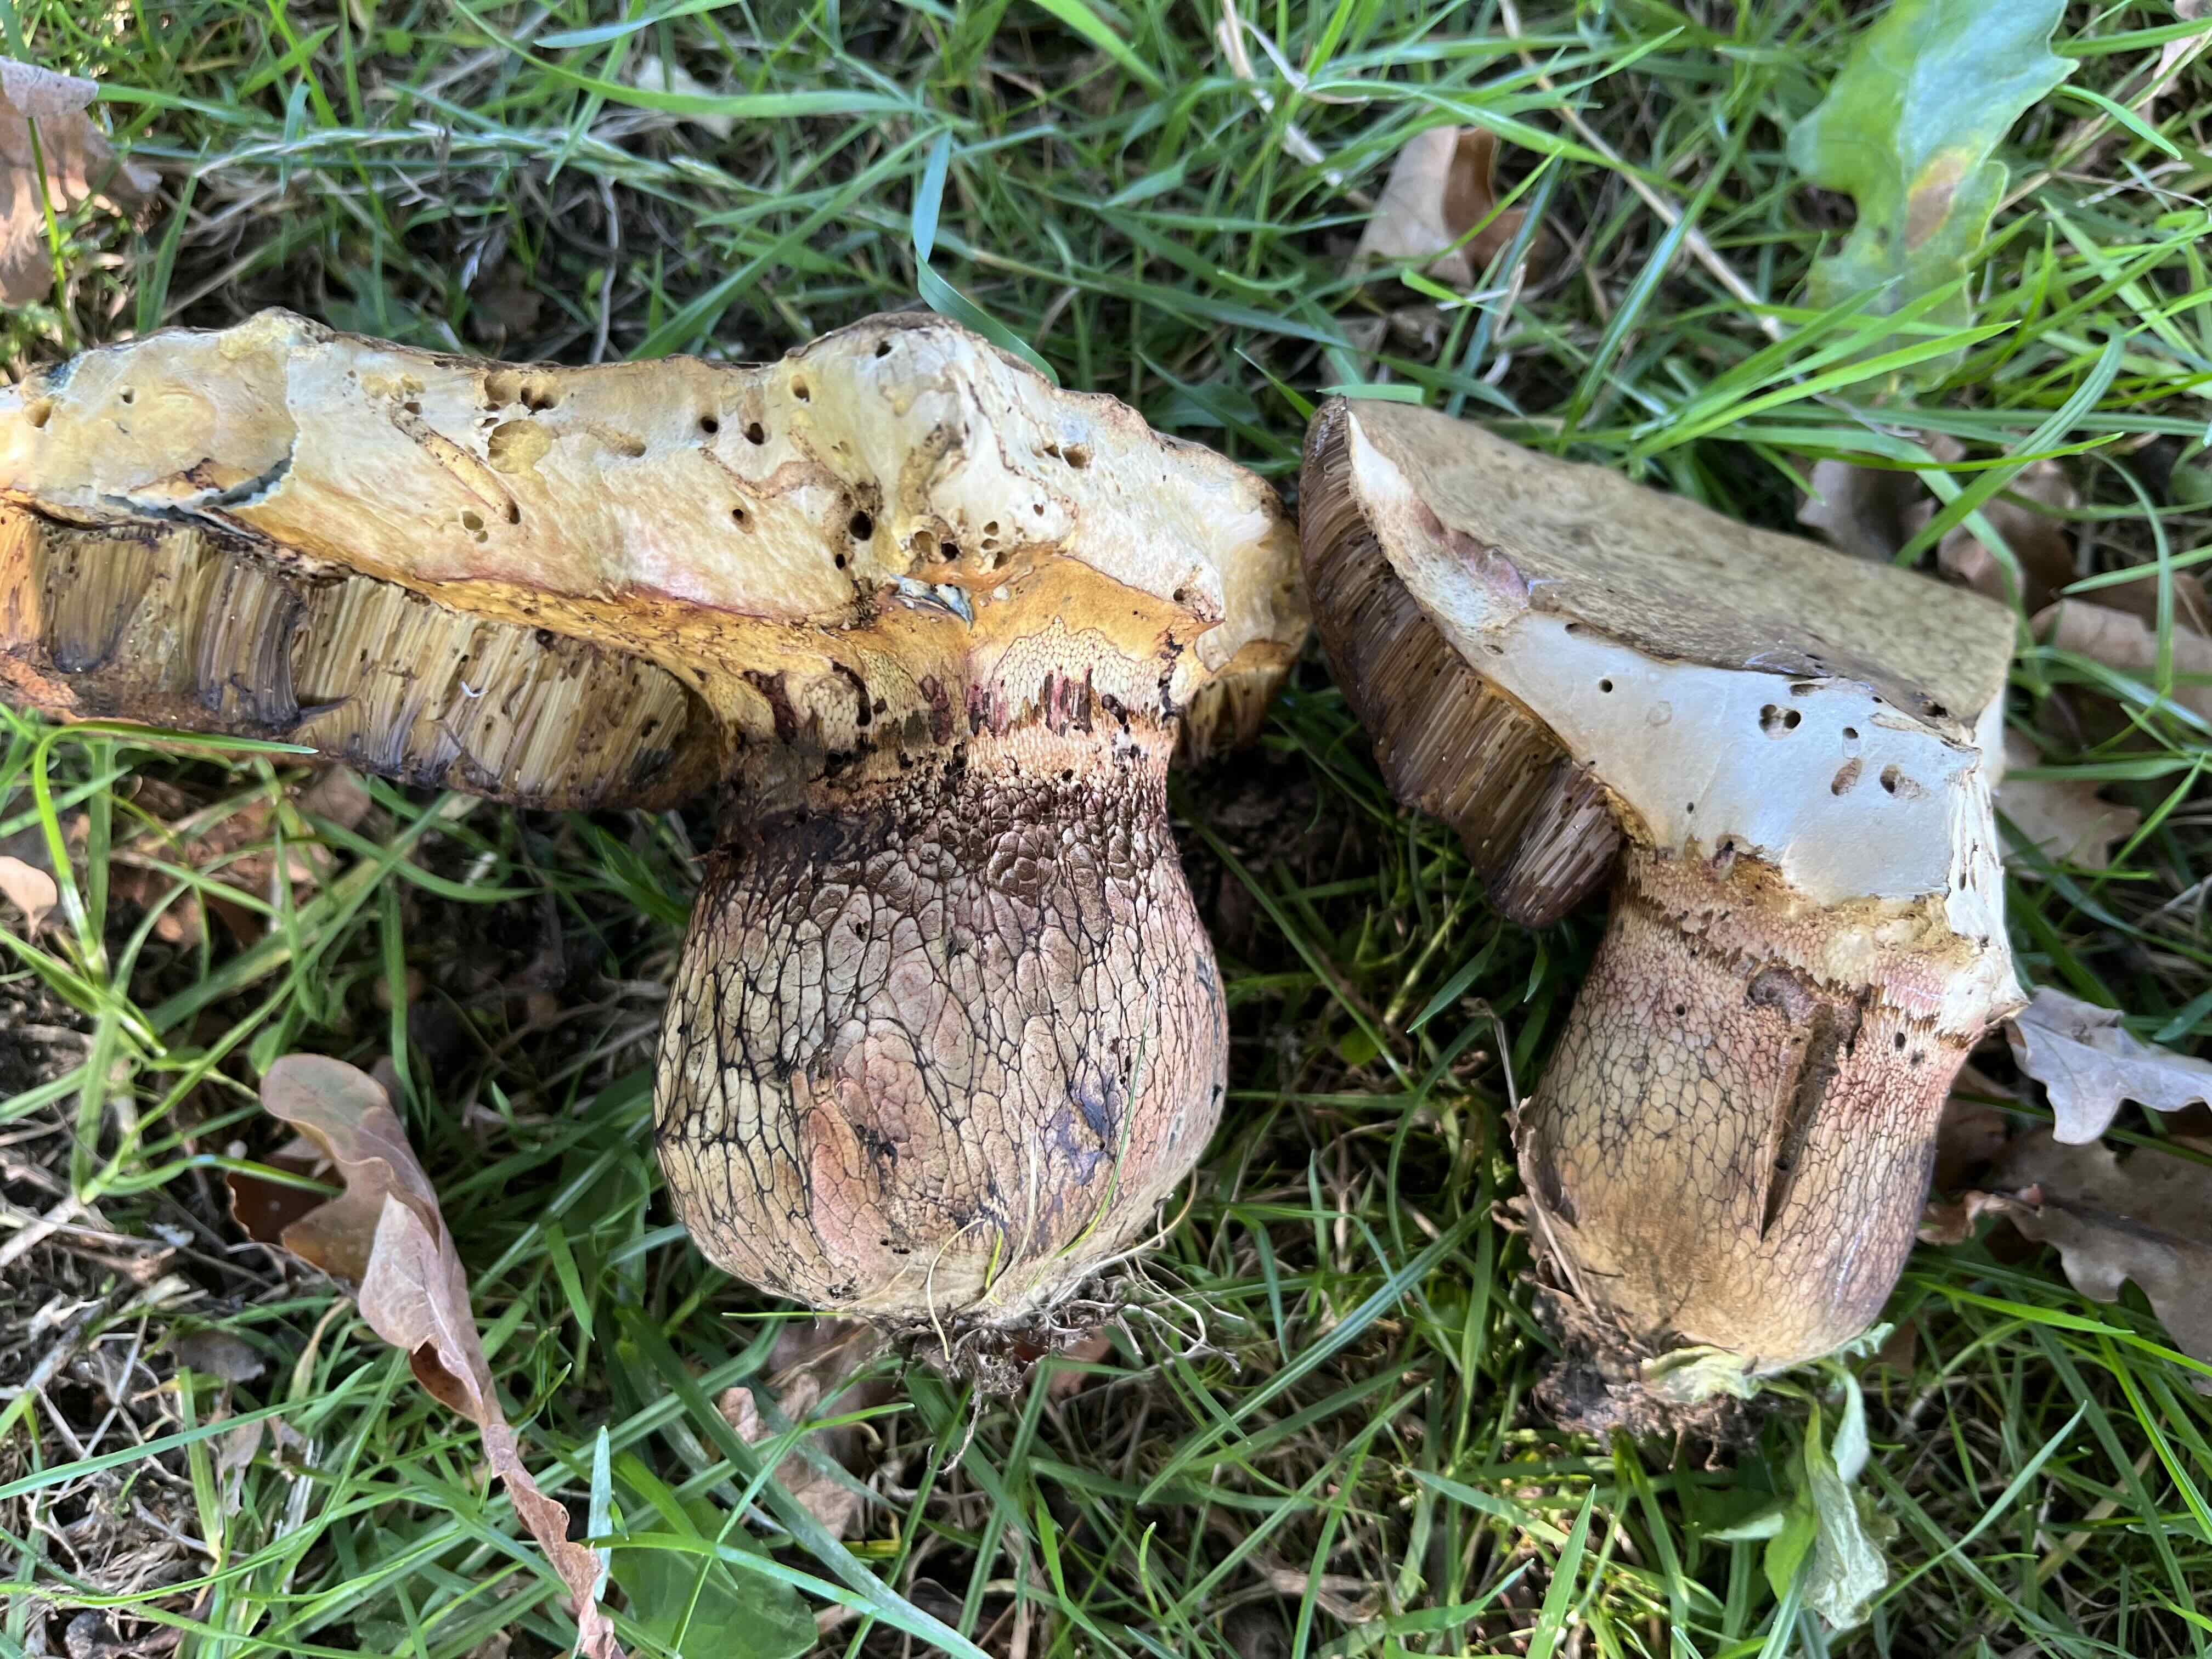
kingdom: Fungi
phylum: Basidiomycota
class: Agaricomycetes
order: Boletales
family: Boletaceae
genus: Suillellus
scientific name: Suillellus luridus
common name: netstokket indigorørhat
